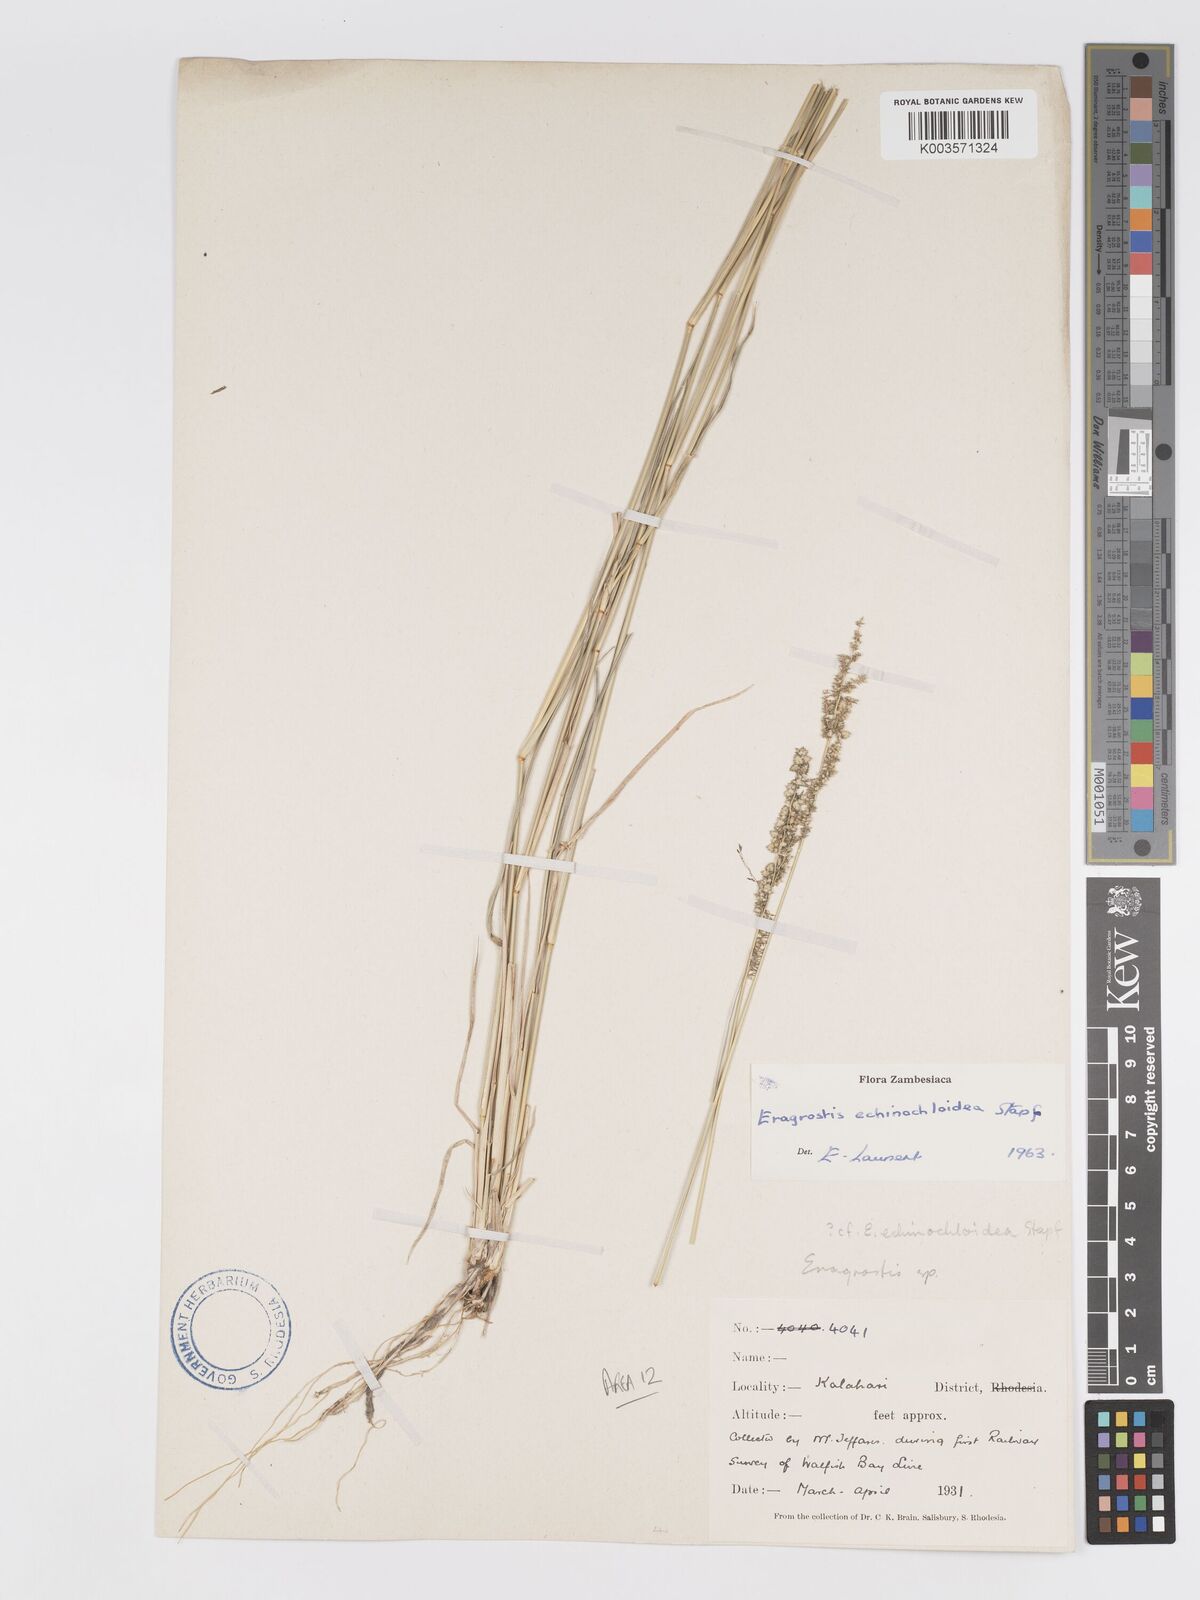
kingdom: Plantae
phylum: Tracheophyta
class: Liliopsida
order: Poales
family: Poaceae
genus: Eragrostis
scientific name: Eragrostis echinochloidea
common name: African lovegrass
